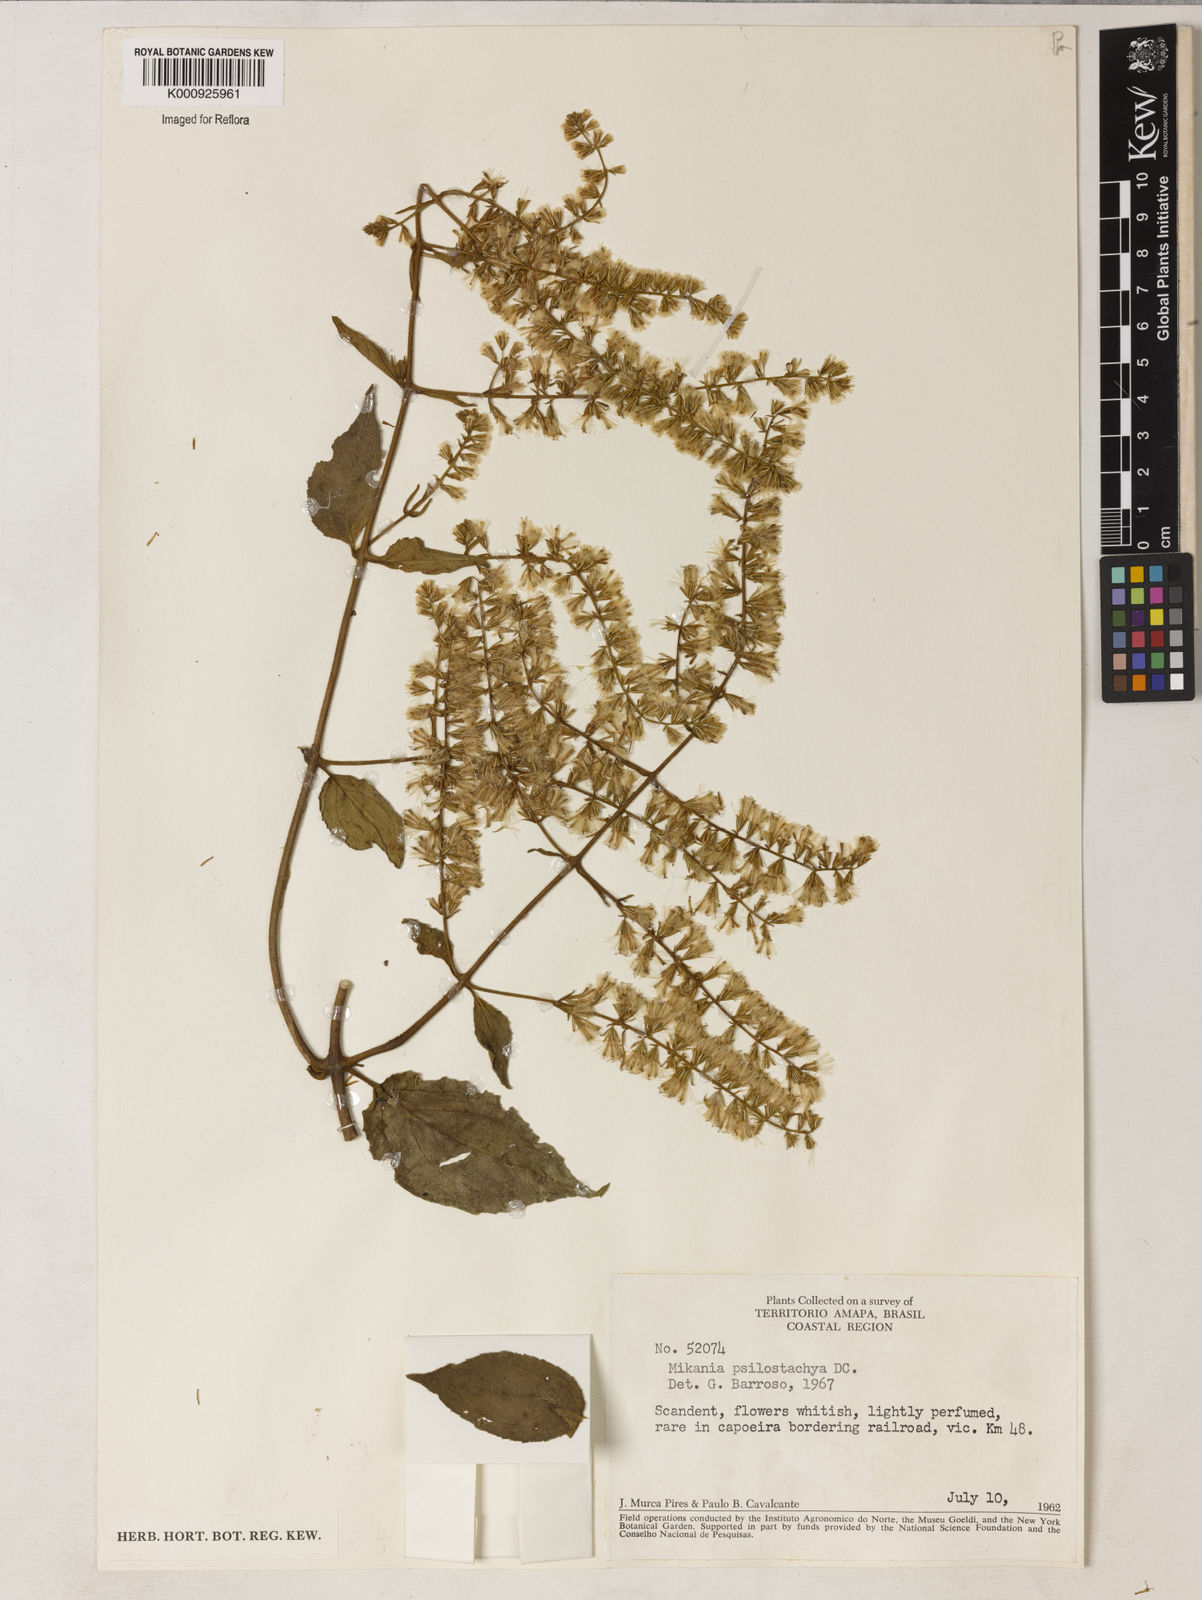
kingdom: Plantae
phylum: Tracheophyta
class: Magnoliopsida
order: Asterales
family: Asteraceae
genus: Mikania
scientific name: Mikania psilostachya
